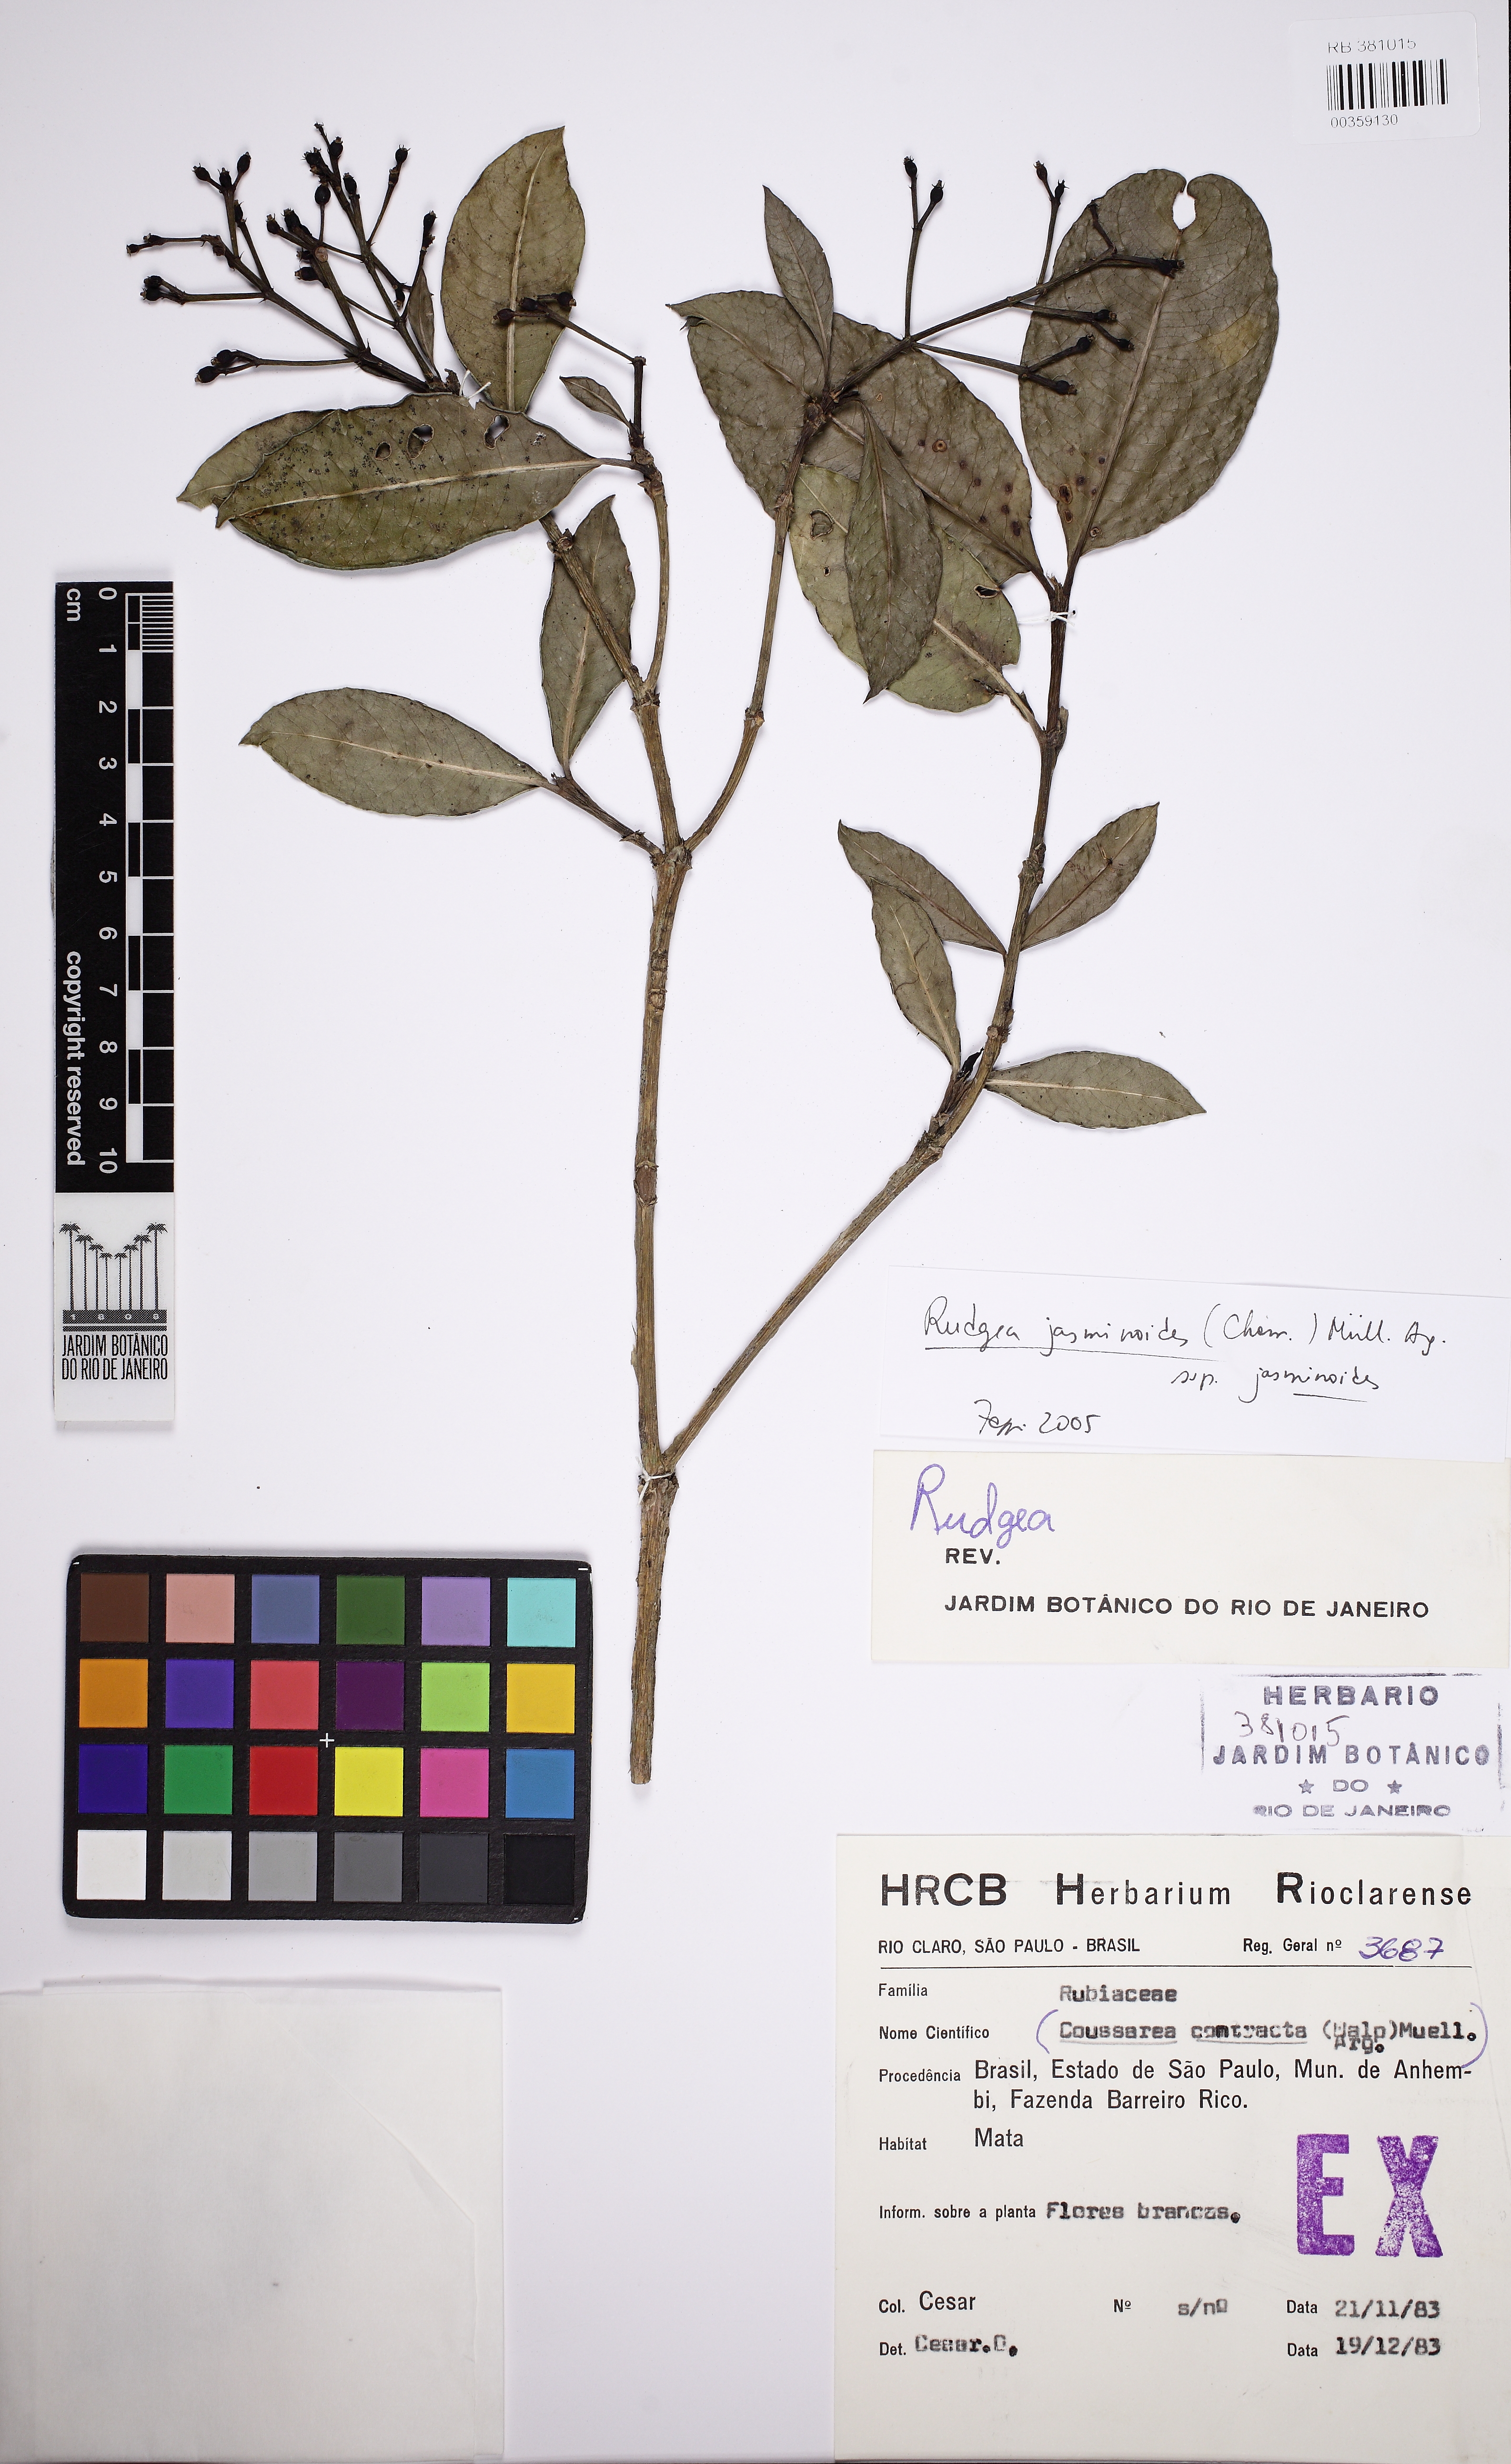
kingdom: Plantae
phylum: Tracheophyta
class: Magnoliopsida
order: Gentianales
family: Rubiaceae
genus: Rudgea
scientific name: Rudgea jasminoides
